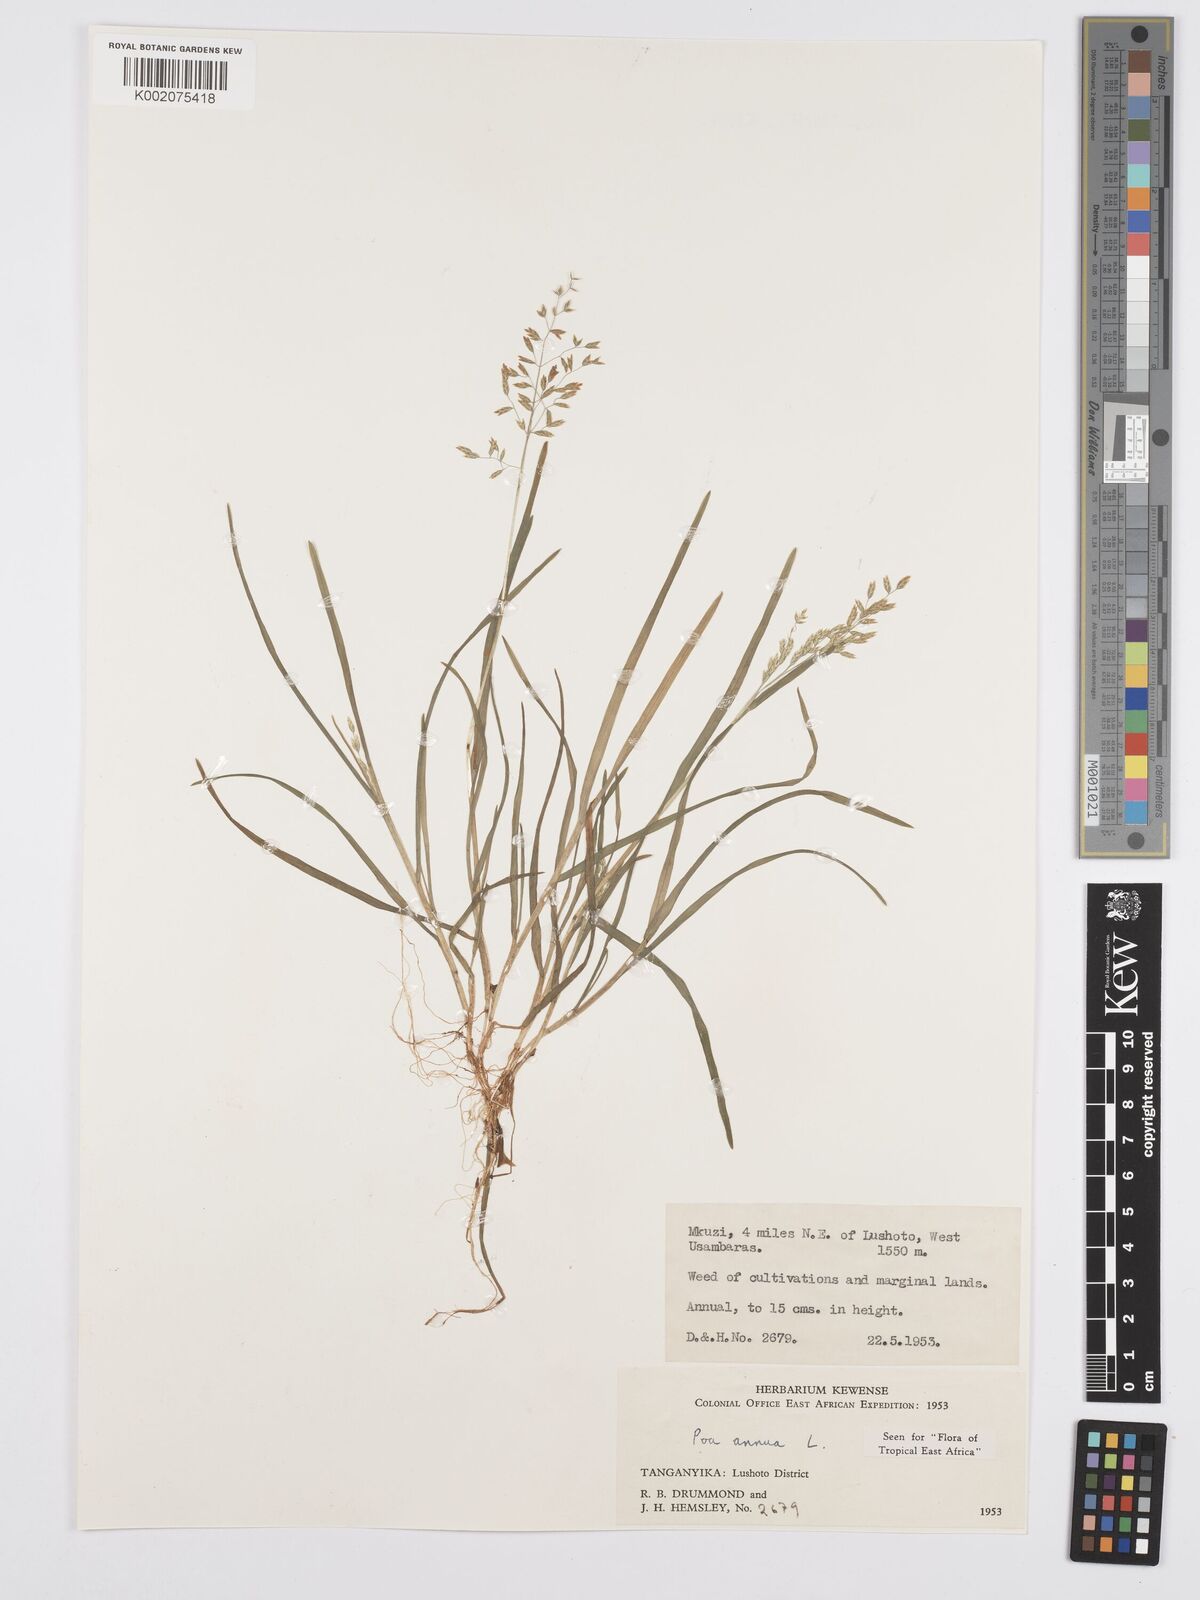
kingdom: Plantae
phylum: Tracheophyta
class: Liliopsida
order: Poales
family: Poaceae
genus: Poa
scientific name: Poa annua
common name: Annual bluegrass
